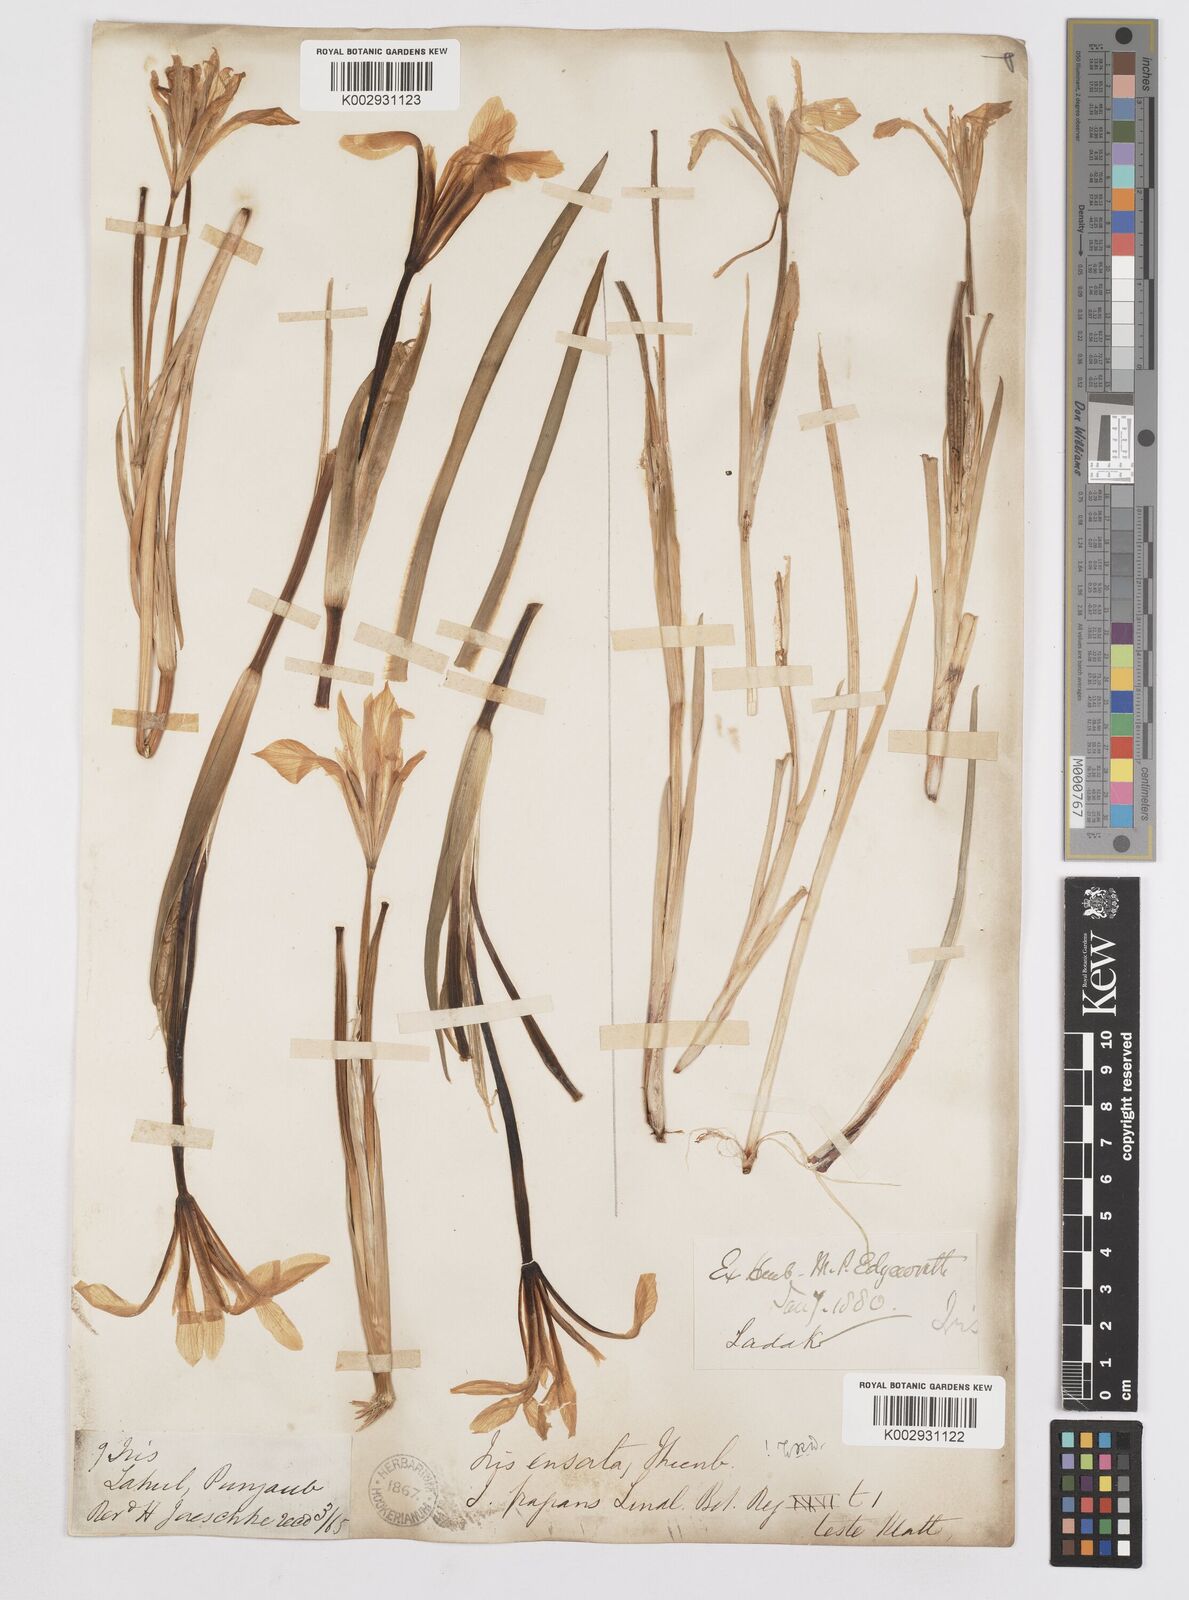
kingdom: Plantae
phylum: Tracheophyta
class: Liliopsida
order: Asparagales
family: Iridaceae
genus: Iris
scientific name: Iris ensata
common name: Beaked iris
